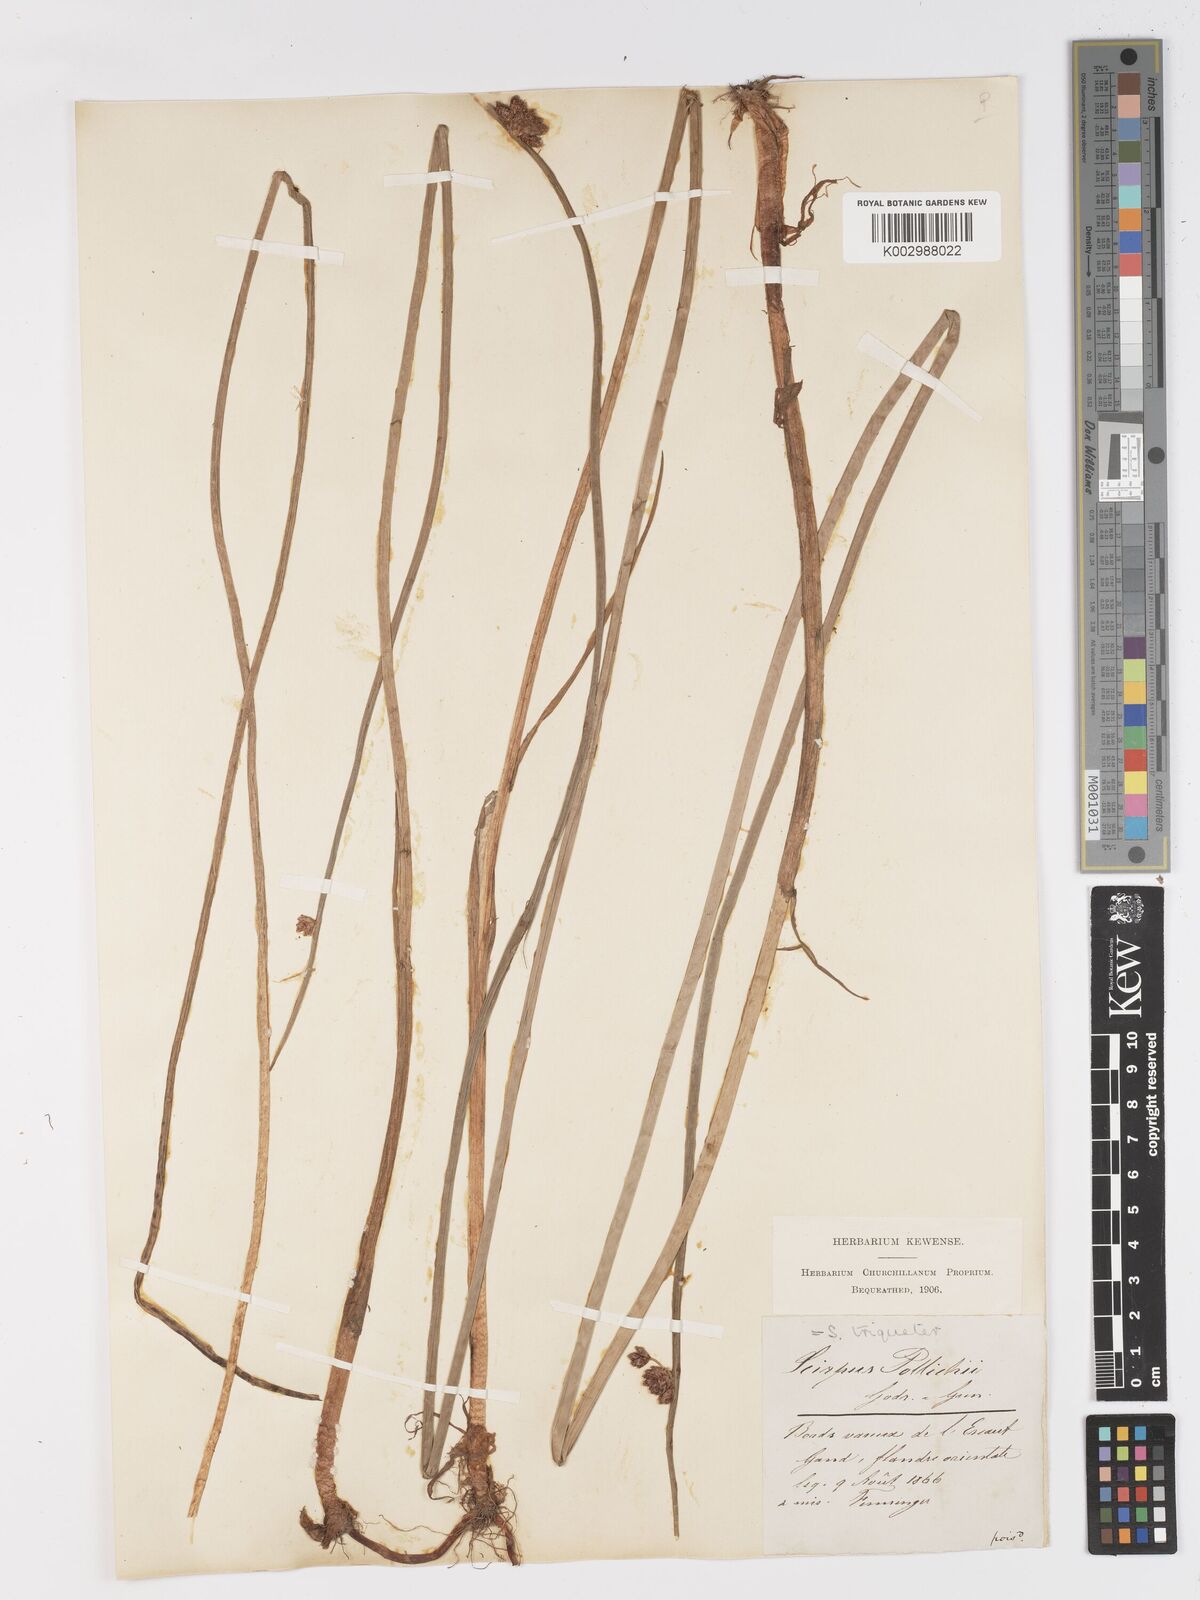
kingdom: Plantae
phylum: Tracheophyta
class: Liliopsida
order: Poales
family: Cyperaceae
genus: Schoenoplectus
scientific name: Schoenoplectus triqueter
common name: Triangular club-rush
